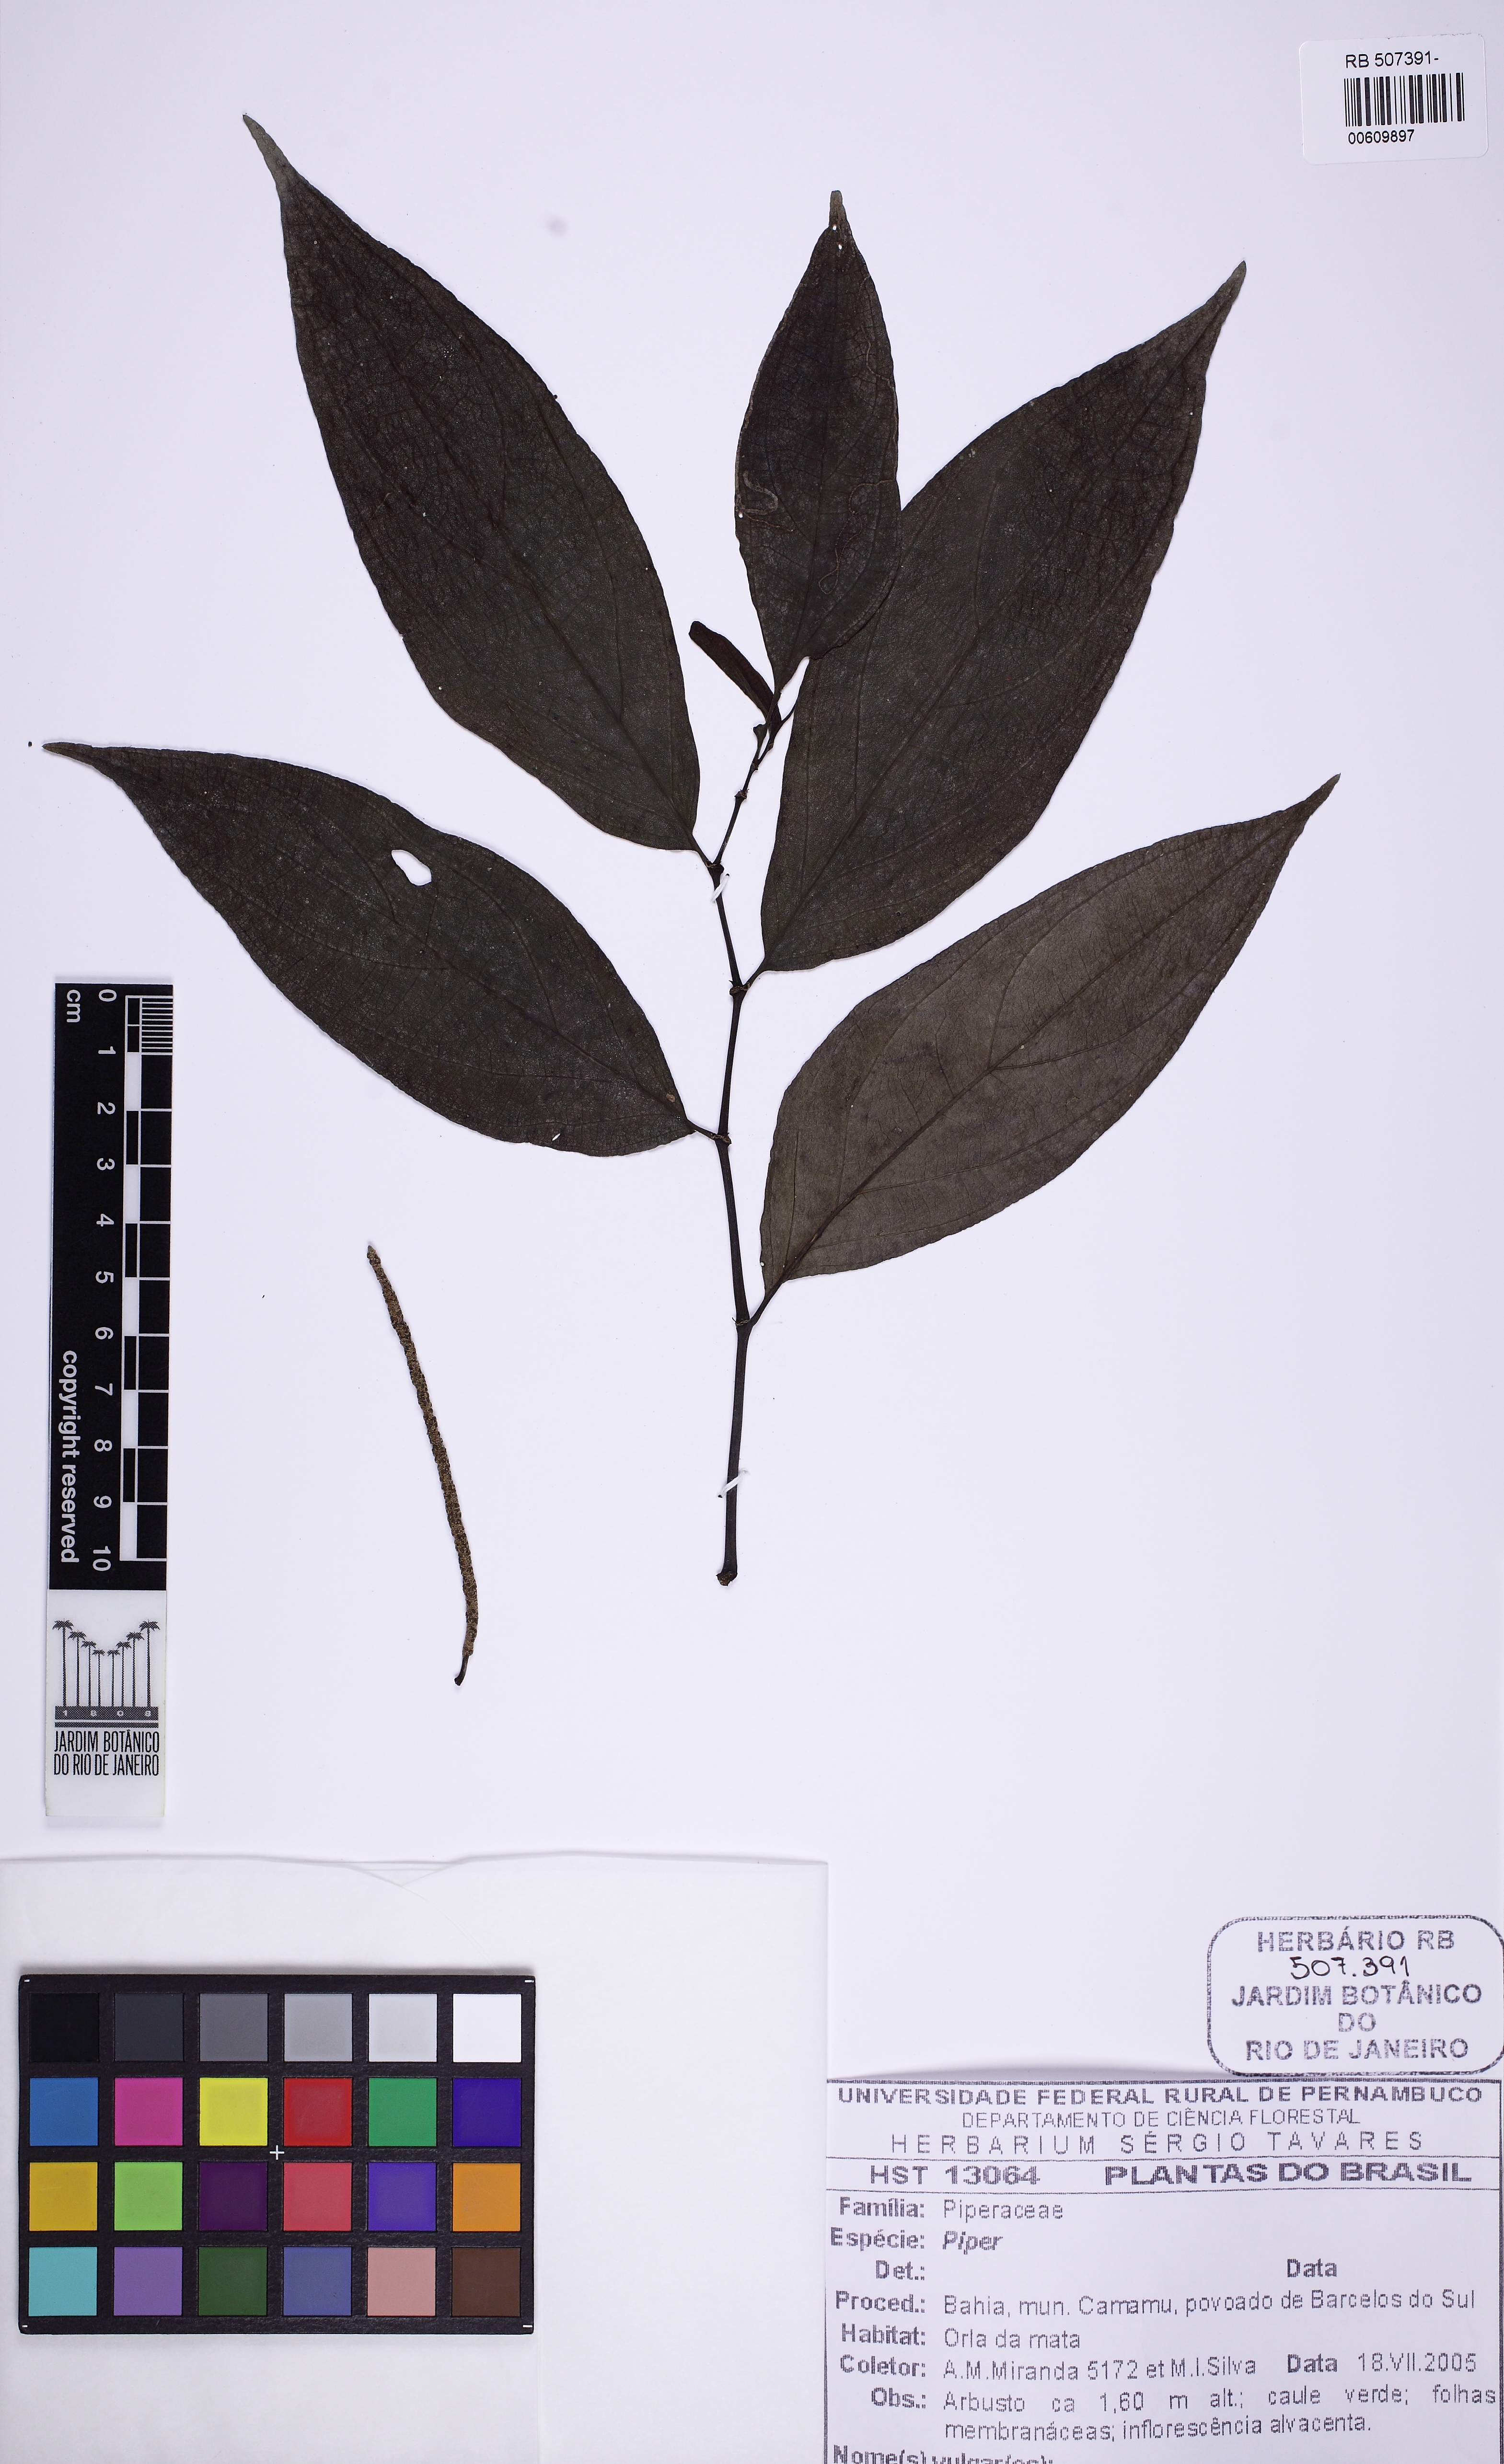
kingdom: Plantae
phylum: Tracheophyta
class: Magnoliopsida
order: Piperales
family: Piperaceae
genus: Piper
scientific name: Piper
